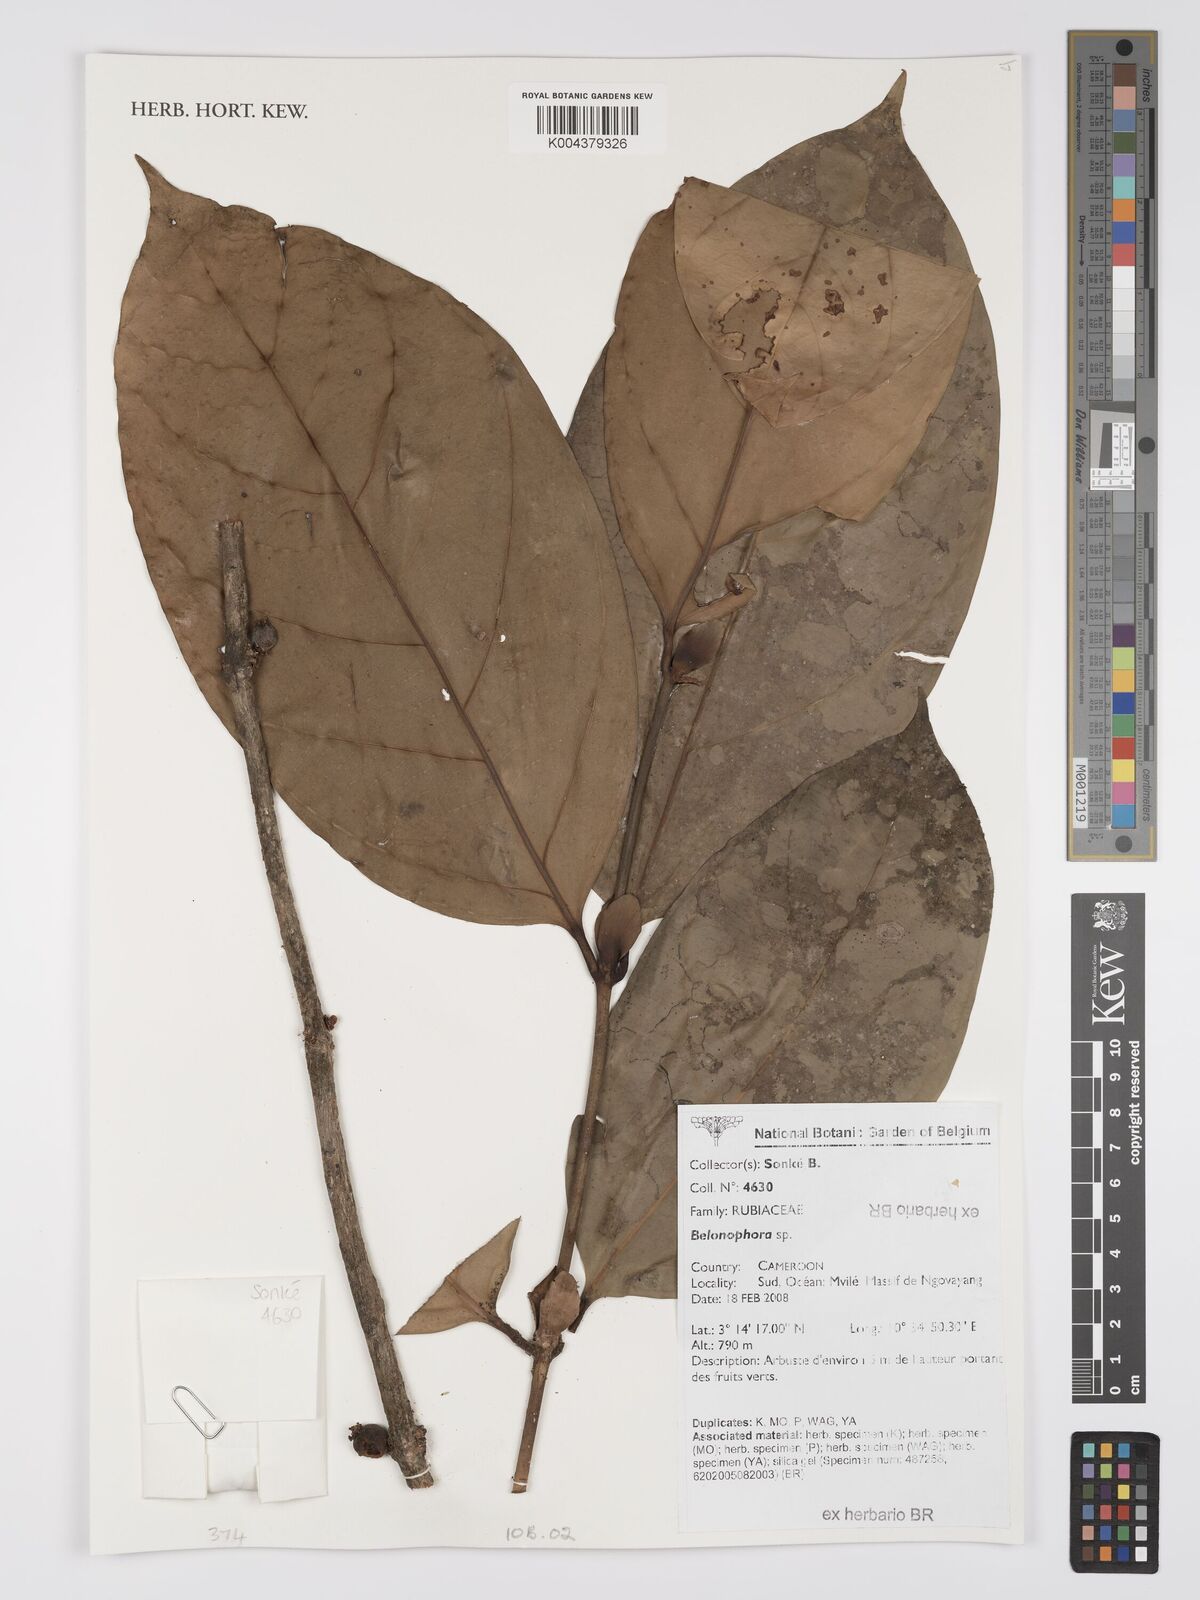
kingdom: Plantae
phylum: Tracheophyta
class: Magnoliopsida
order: Gentianales
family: Rubiaceae
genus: Belonophora
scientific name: Belonophora
